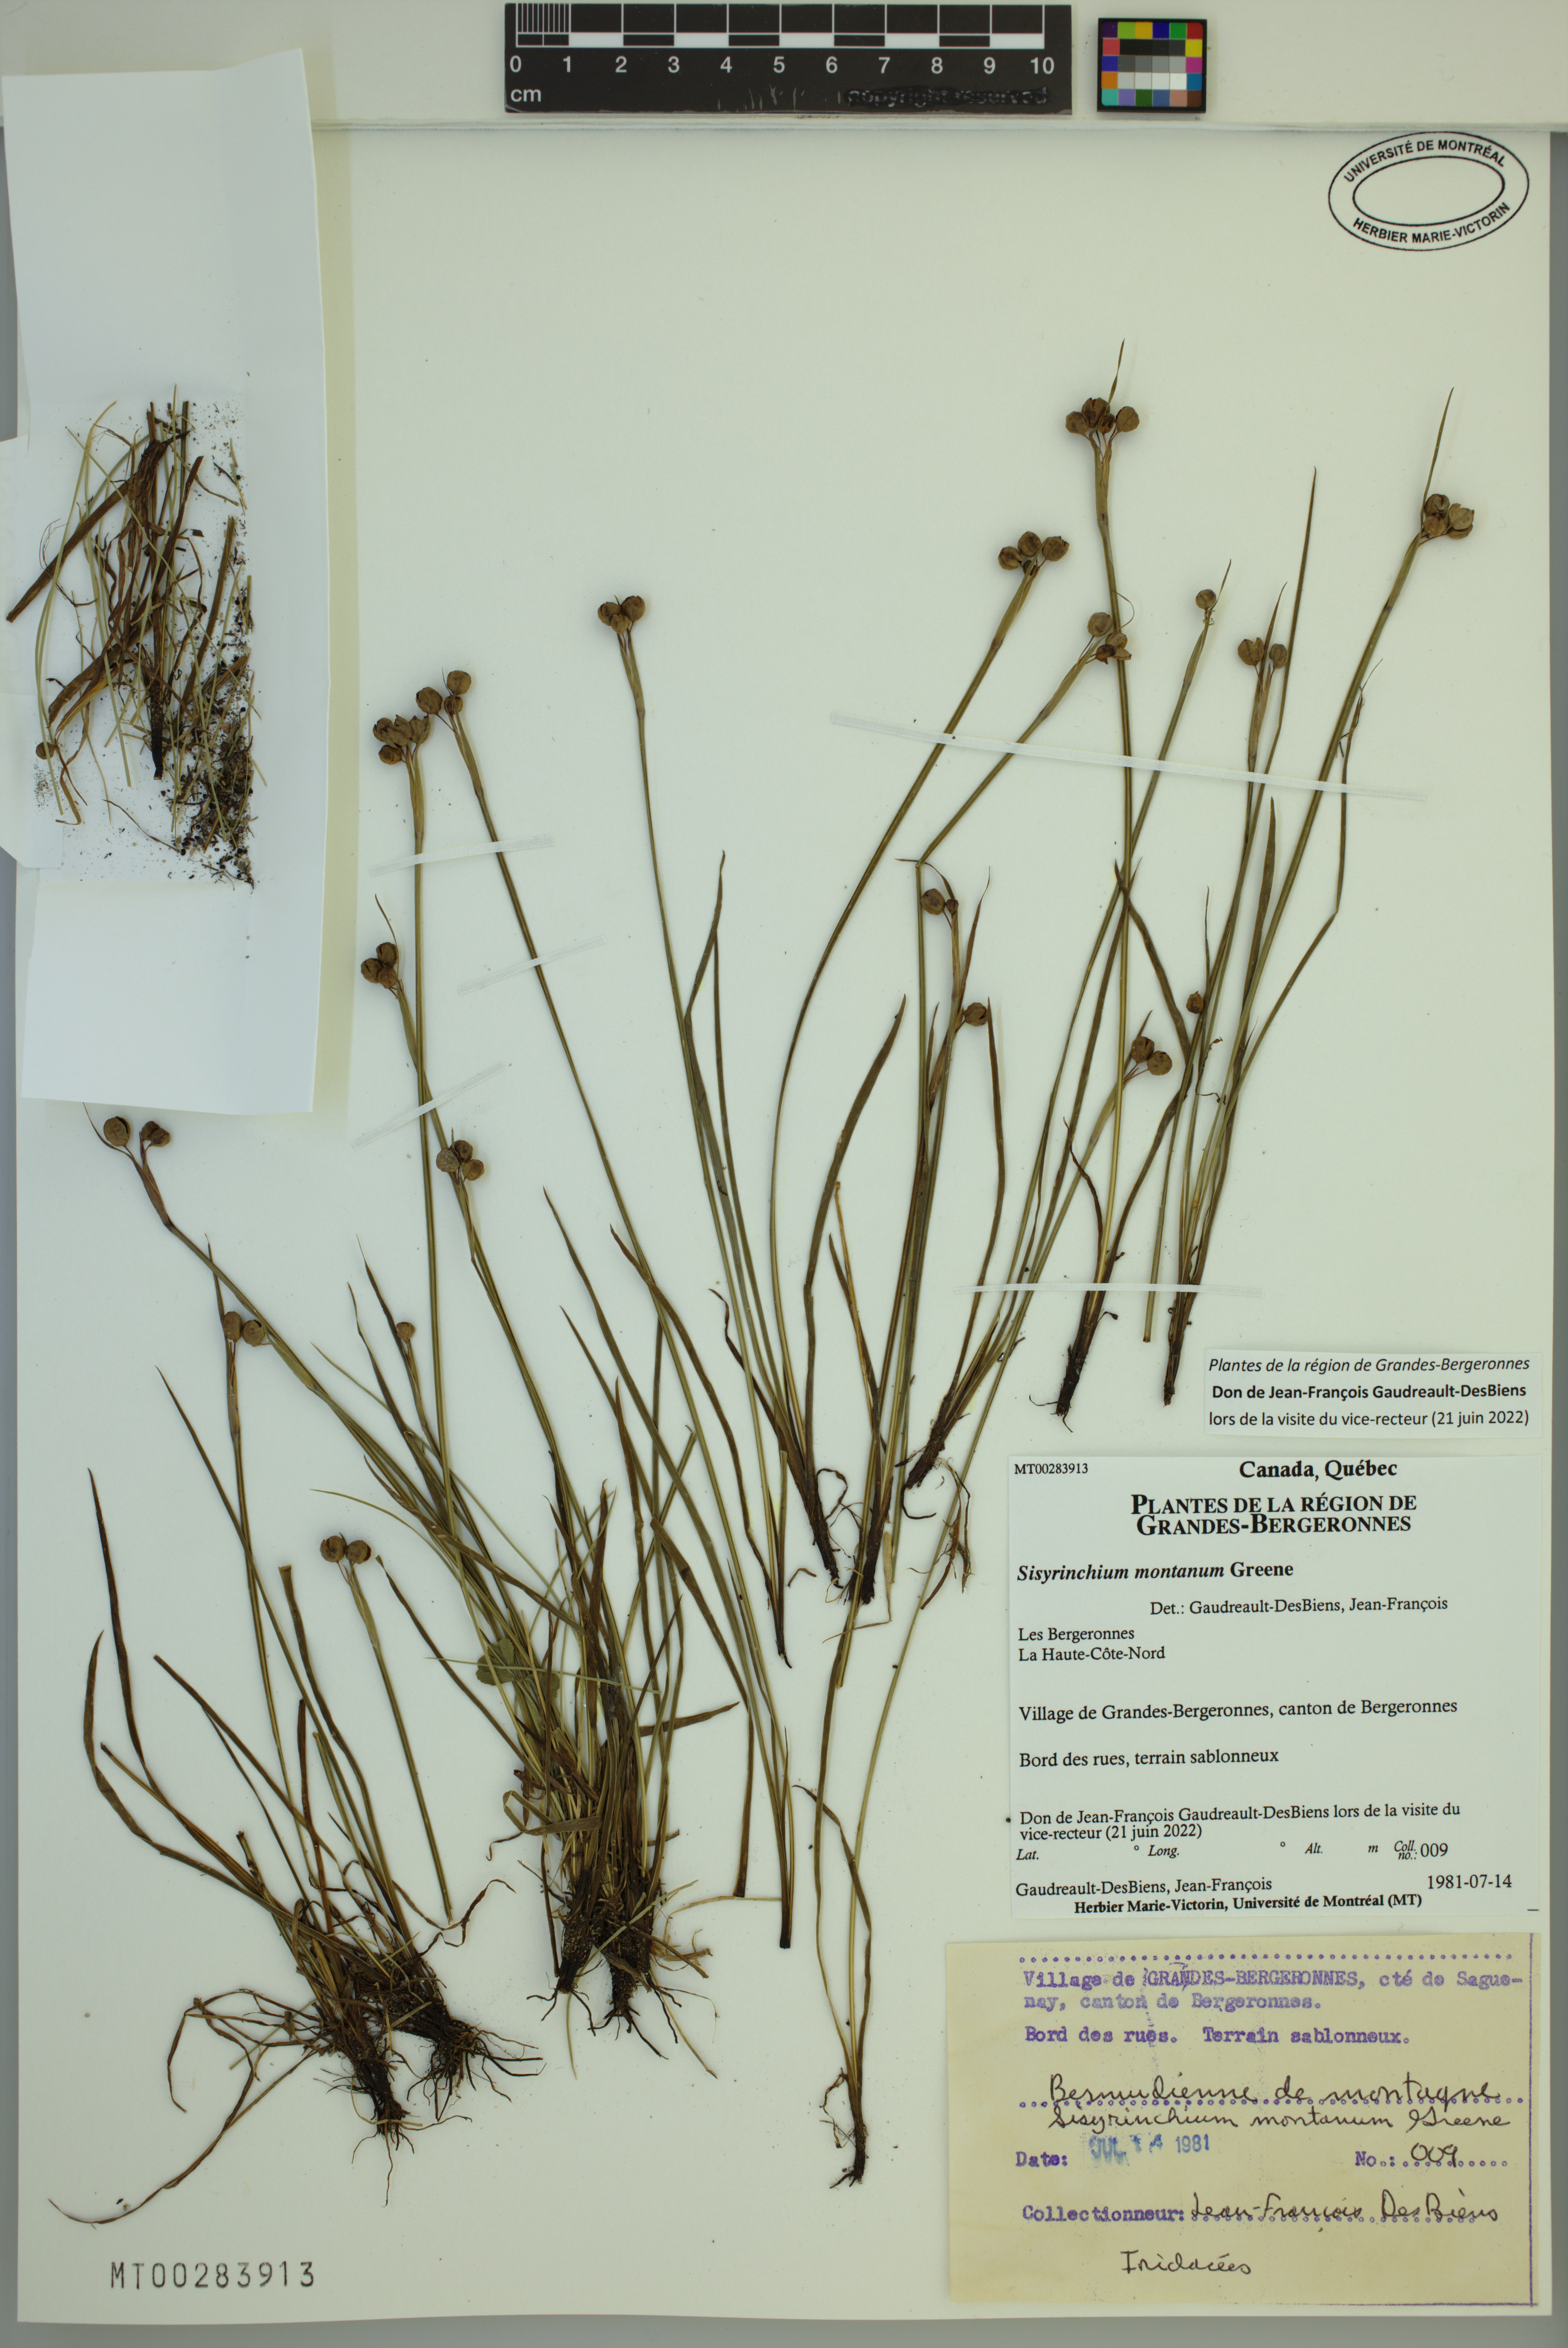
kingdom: Plantae
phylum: Tracheophyta
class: Liliopsida
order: Asparagales
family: Iridaceae
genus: Sisyrinchium
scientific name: Sisyrinchium montanum
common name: American blue-eyed-grass
